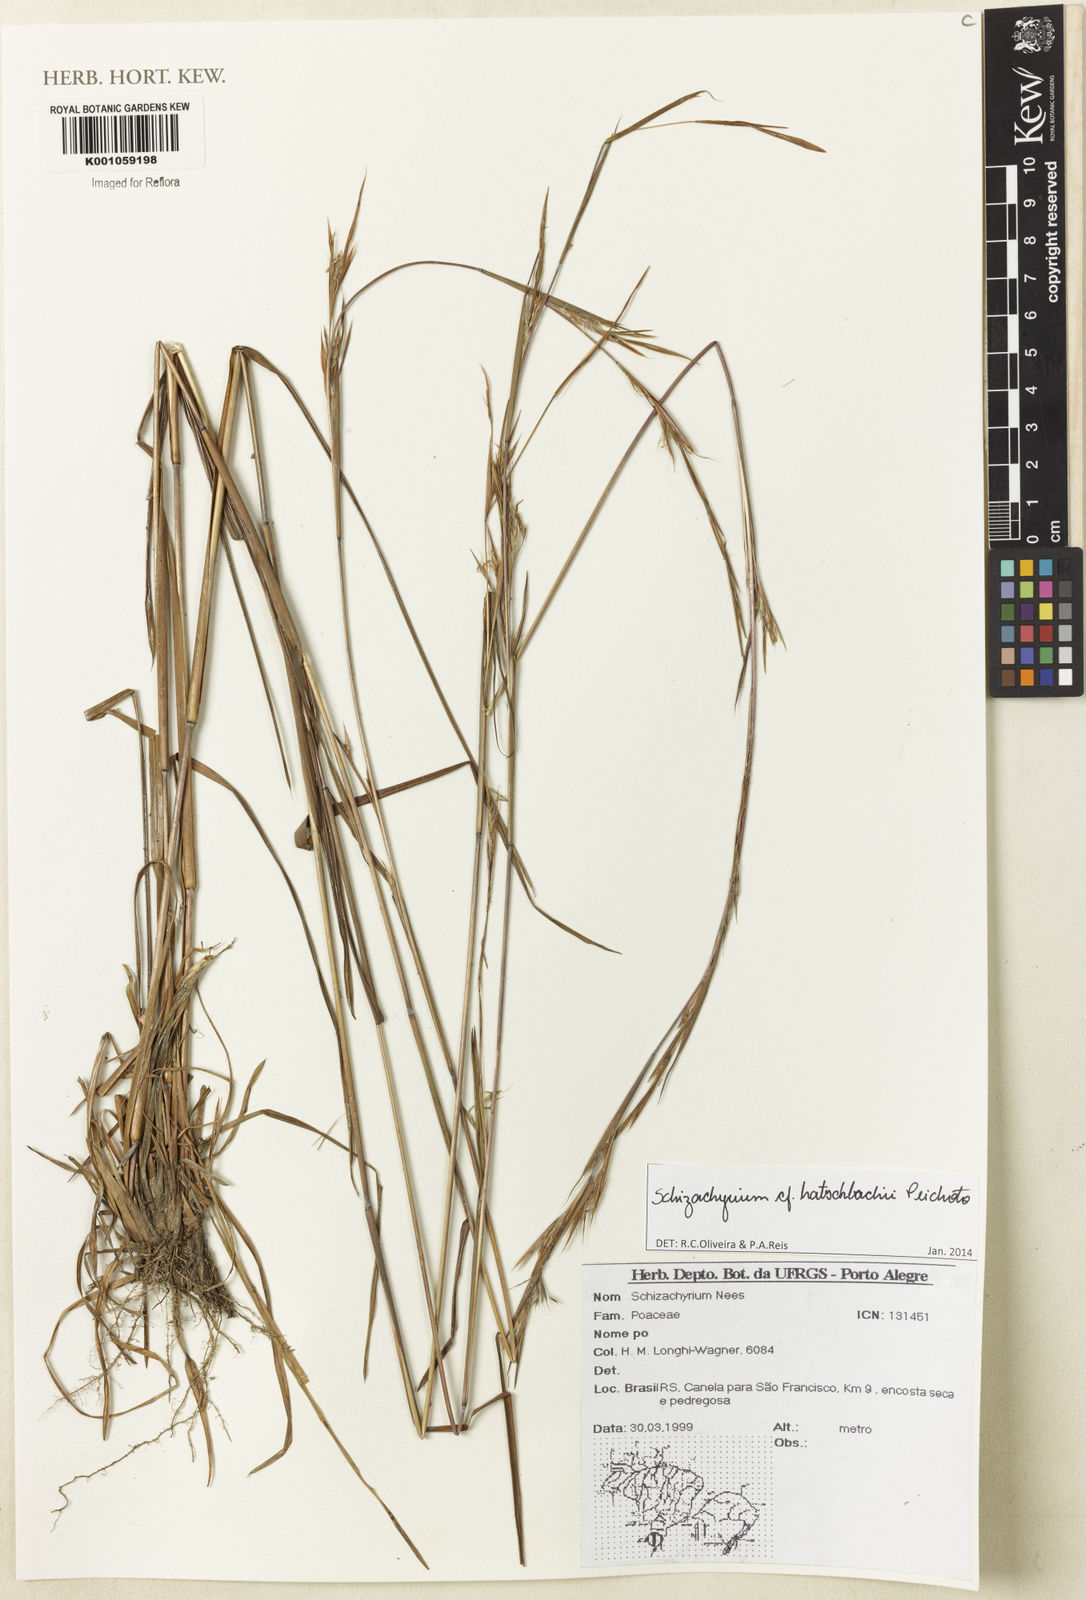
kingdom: Plantae
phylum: Tracheophyta
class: Liliopsida
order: Poales
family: Poaceae
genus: Schizachyrium
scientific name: Schizachyrium hatschbachii
